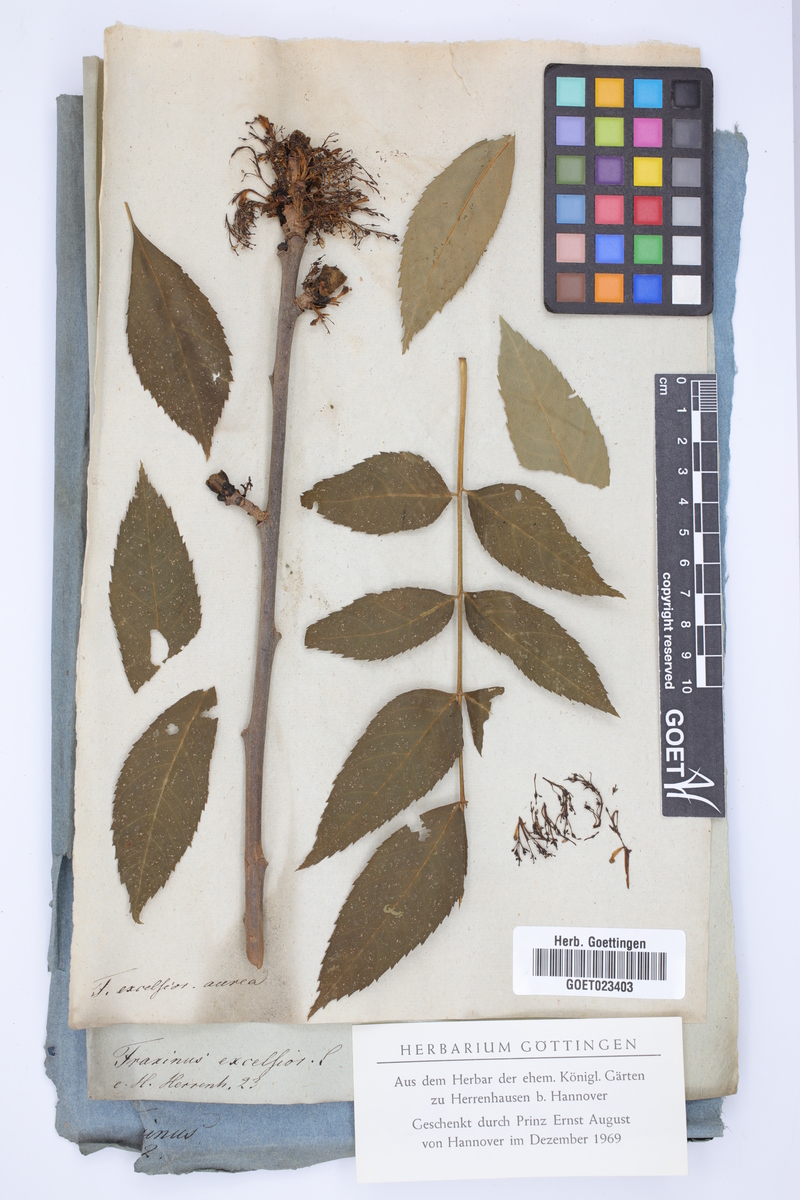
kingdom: Plantae
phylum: Tracheophyta
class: Magnoliopsida
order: Lamiales
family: Oleaceae
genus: Fraxinus
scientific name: Fraxinus excelsior
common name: European ash
